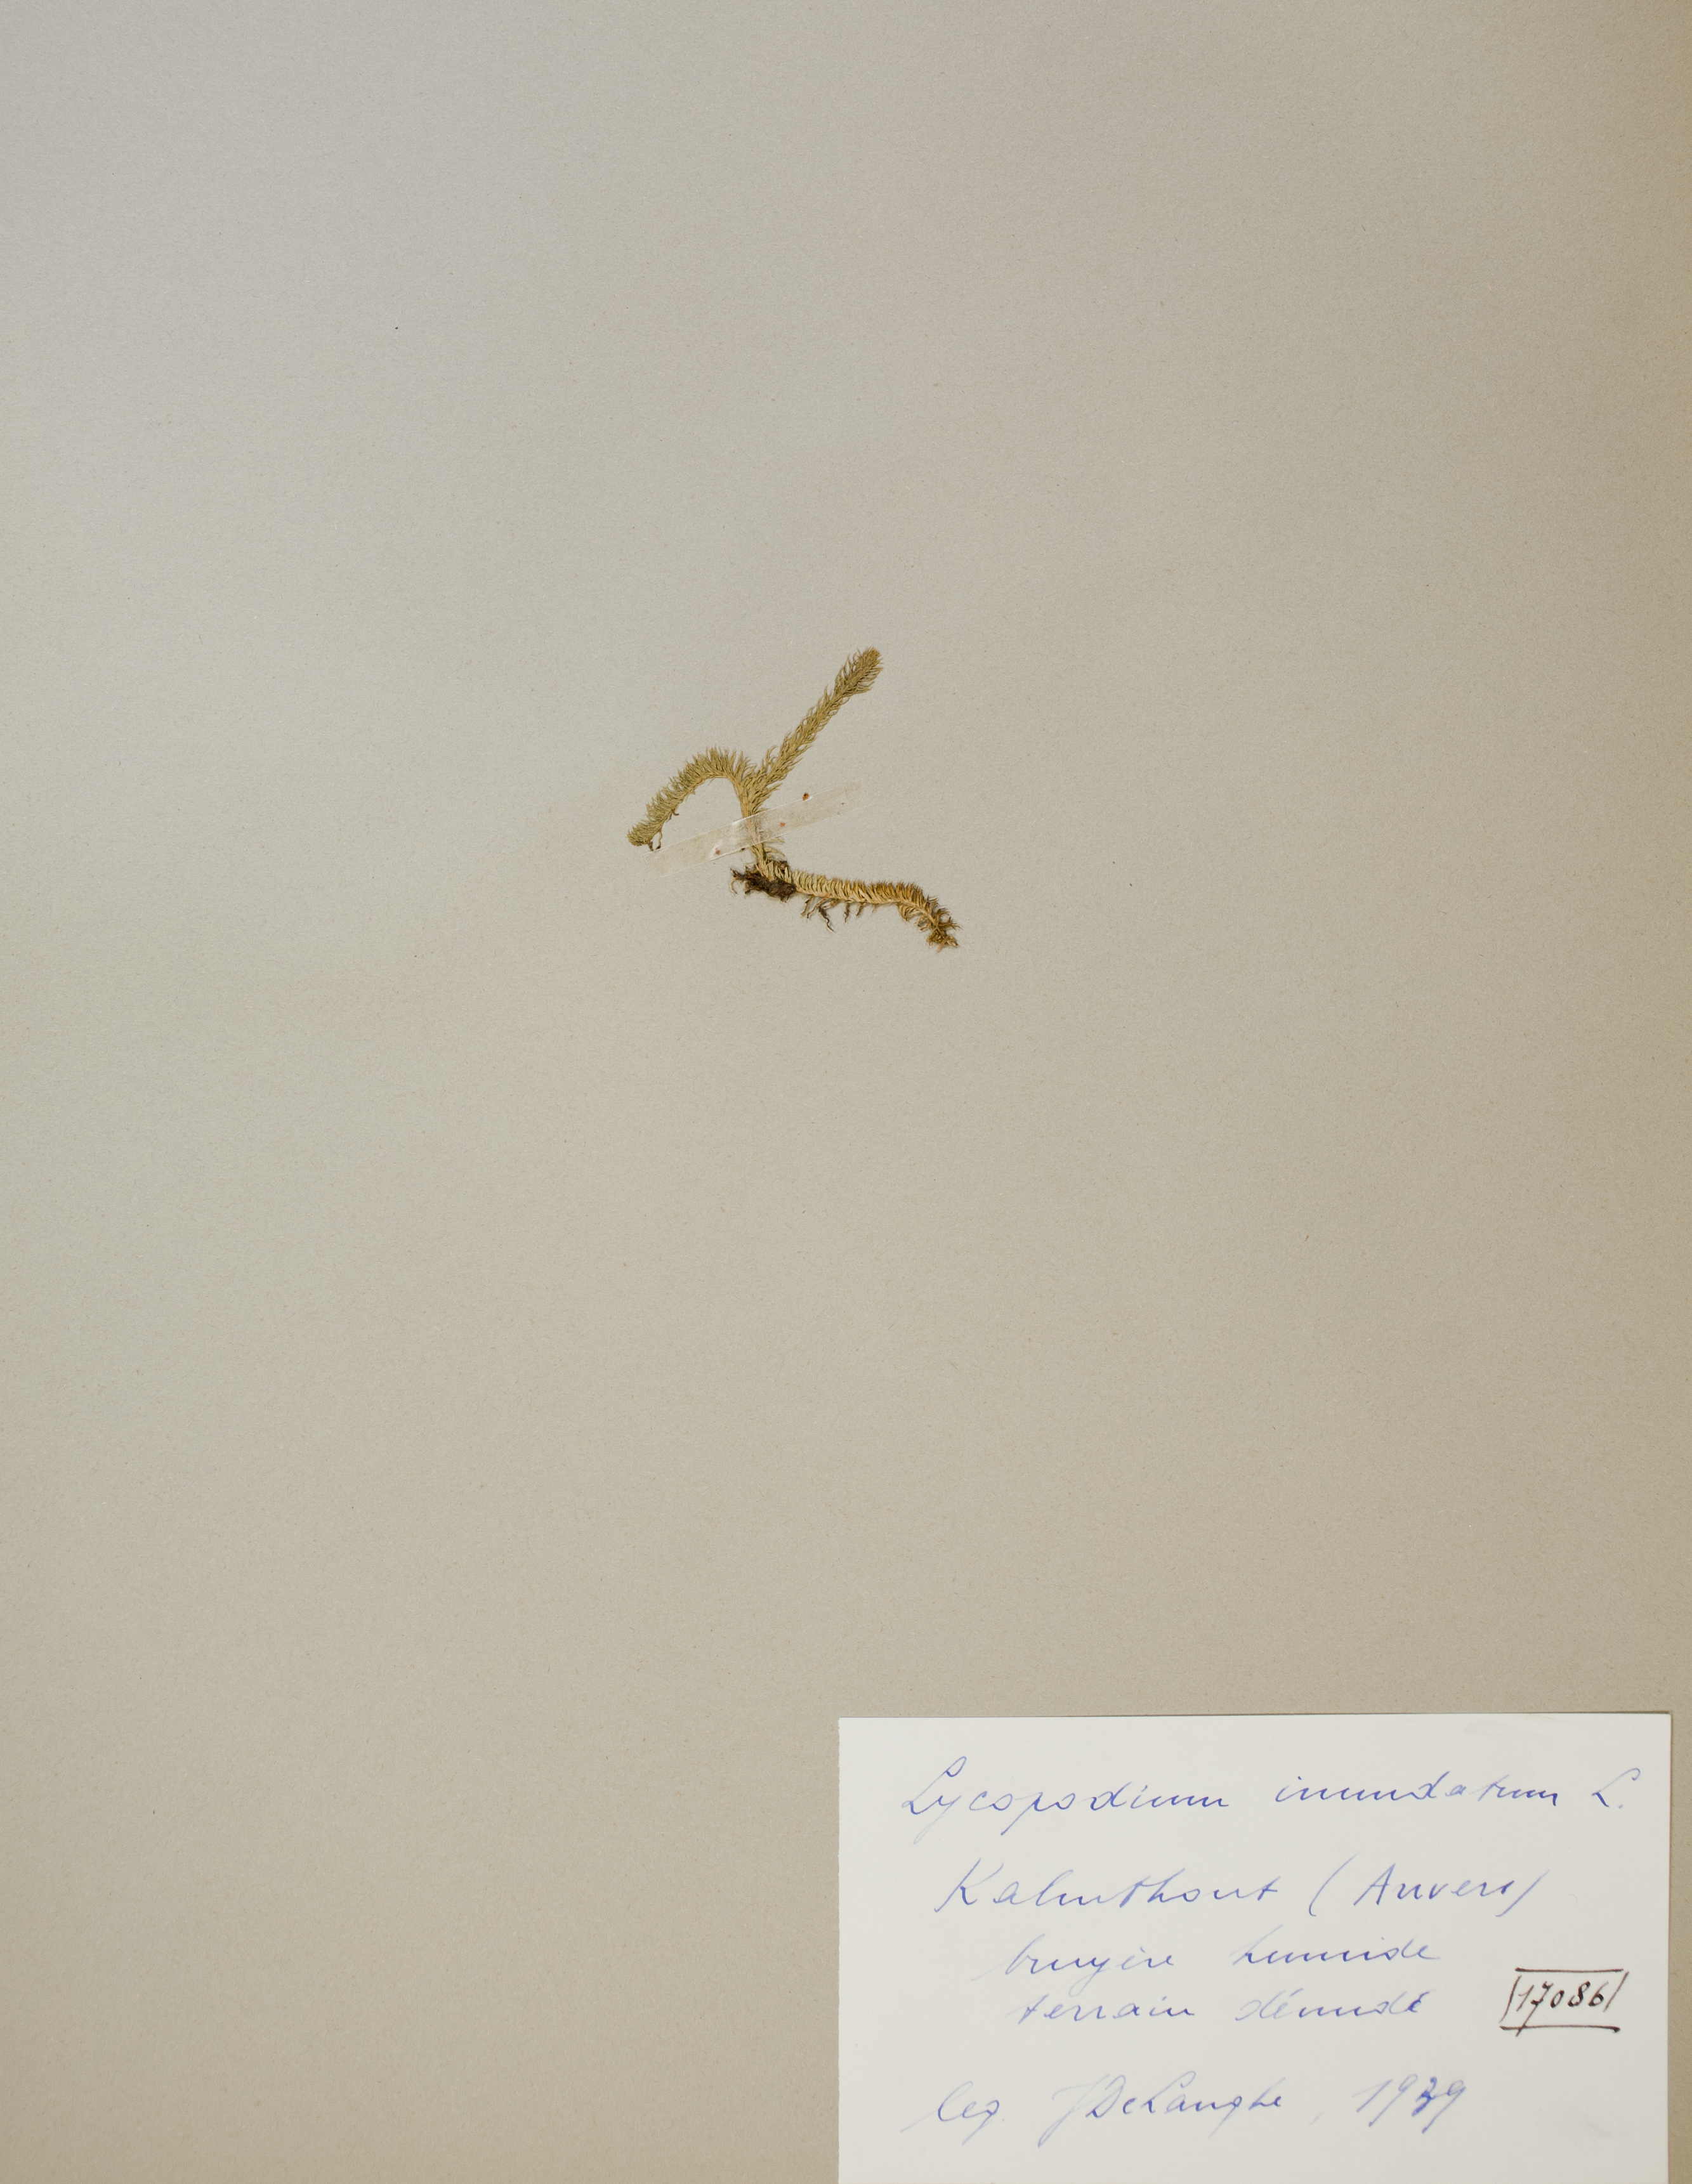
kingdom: Plantae
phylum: Tracheophyta
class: Lycopodiopsida
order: Lycopodiales
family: Lycopodiaceae
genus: Lycopodiella
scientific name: Lycopodiella inundata
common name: Marsh clubmoss
